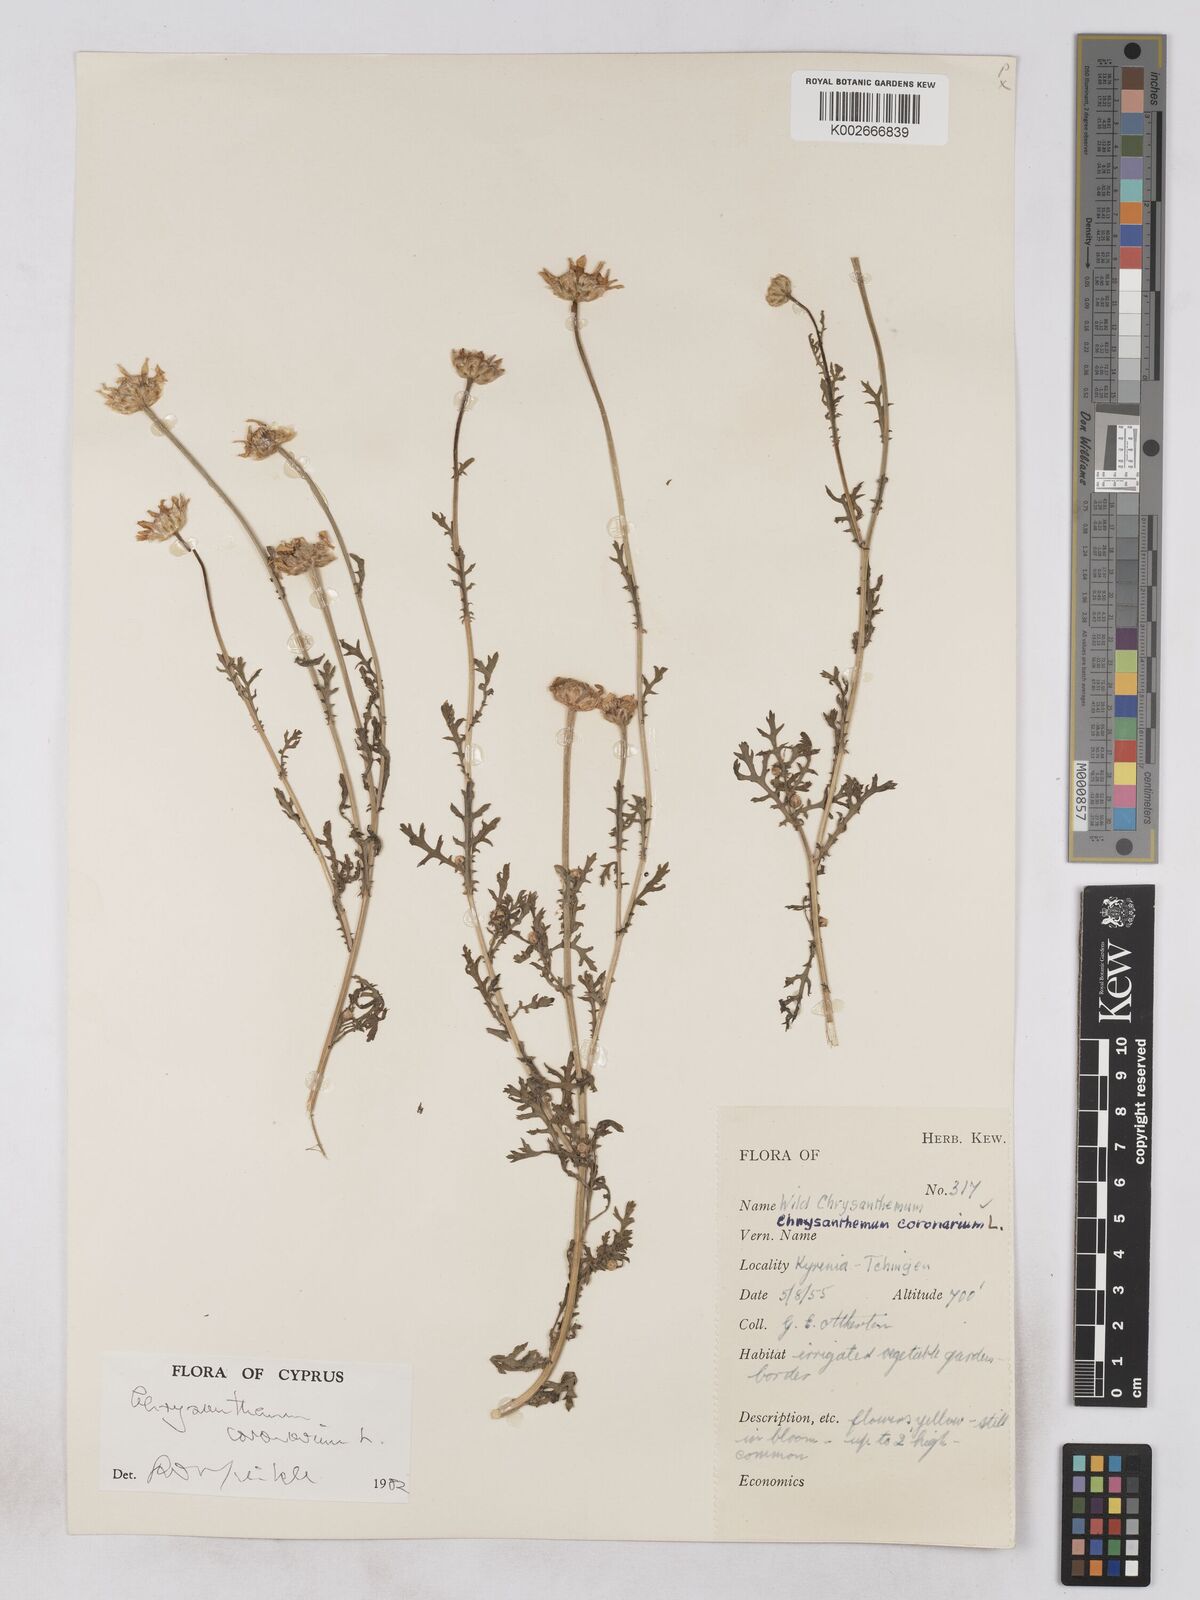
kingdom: Plantae
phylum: Tracheophyta
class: Magnoliopsida
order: Asterales
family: Asteraceae
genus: Glebionis
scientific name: Glebionis coronaria
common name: Crowndaisy
